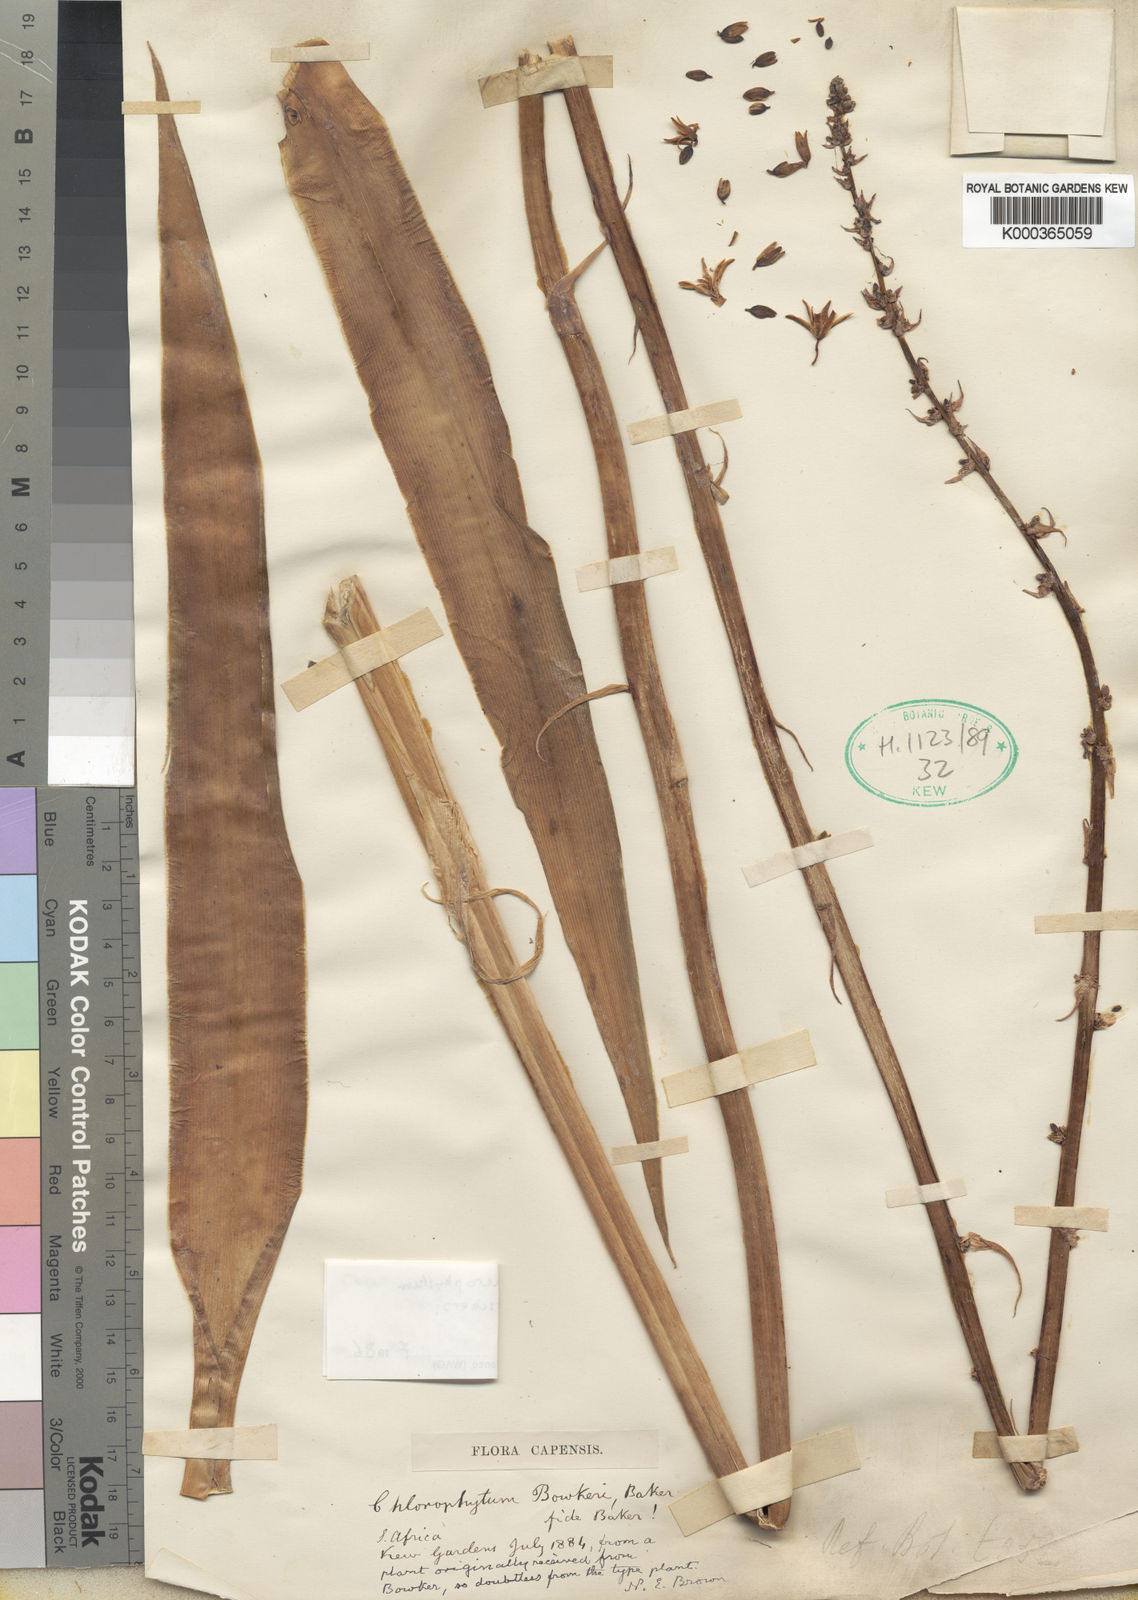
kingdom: Plantae
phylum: Tracheophyta
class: Liliopsida
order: Asparagales
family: Asparagaceae
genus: Chlorophytum
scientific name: Chlorophytum bowkeri
